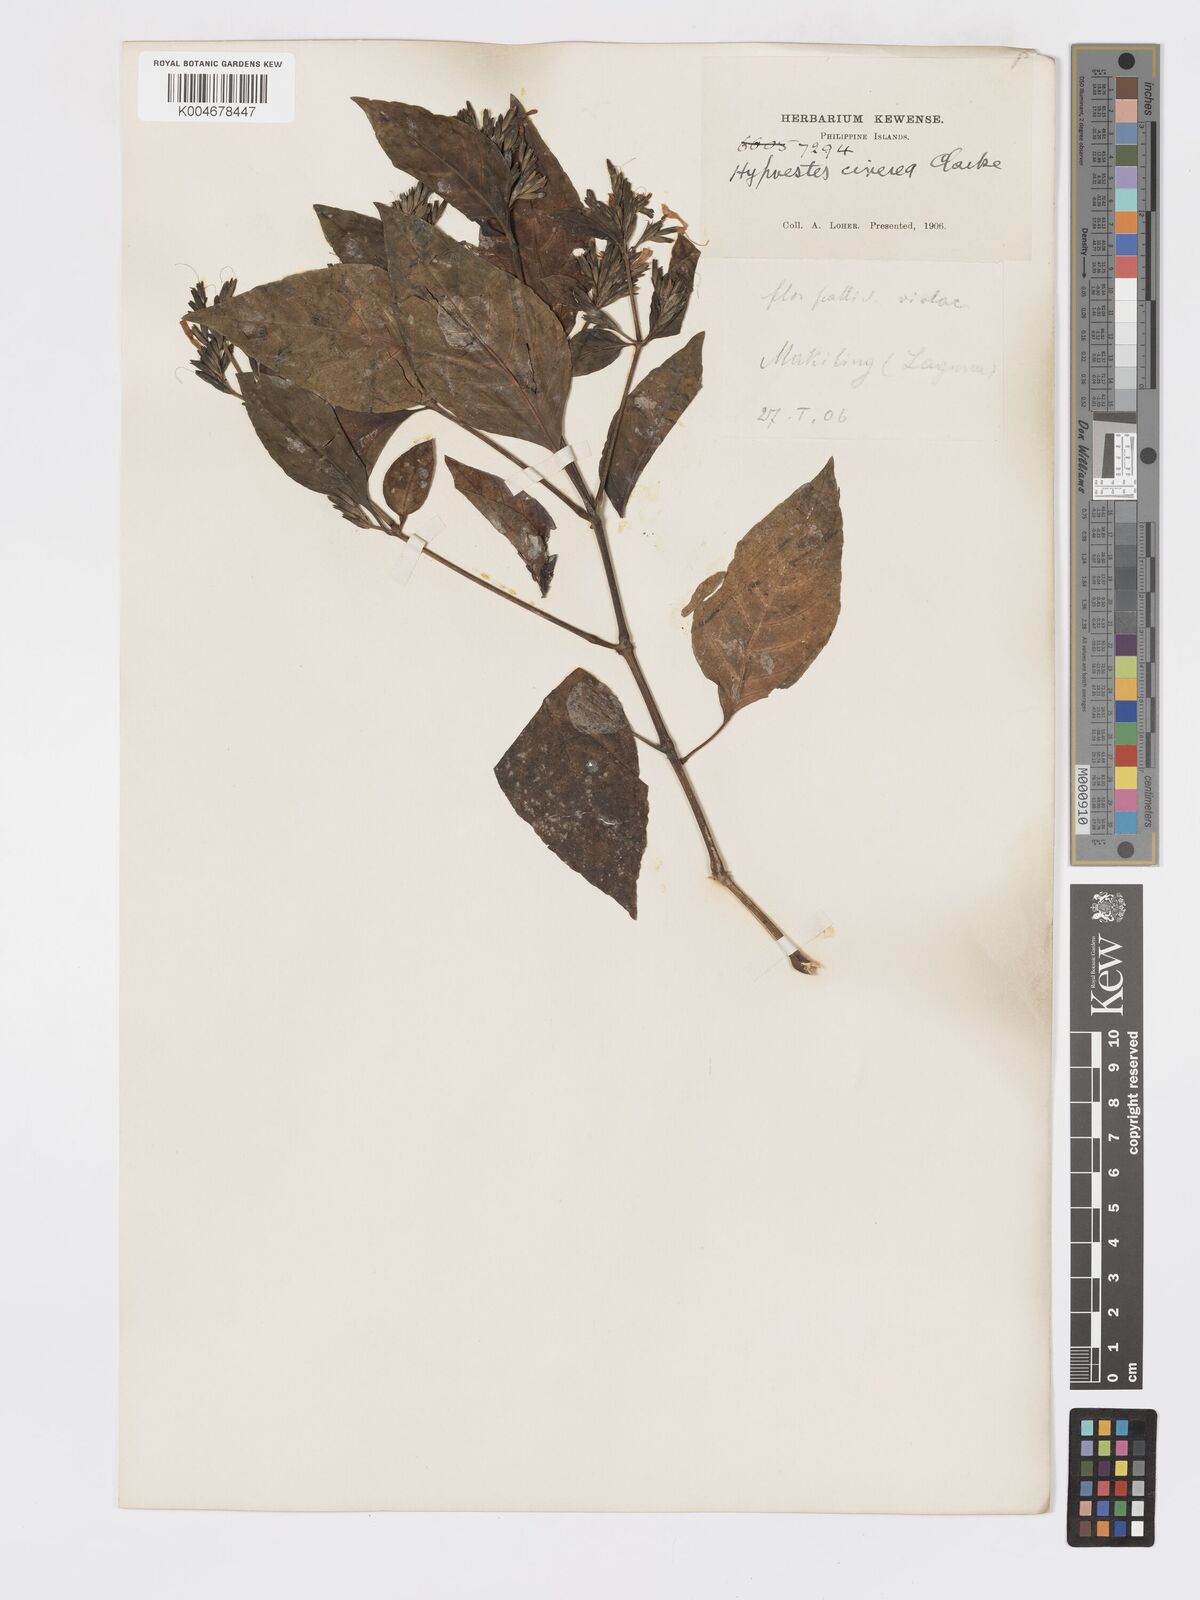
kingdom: Plantae
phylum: Tracheophyta
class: Magnoliopsida
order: Lamiales
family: Acanthaceae
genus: Hypoestes
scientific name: Hypoestes
